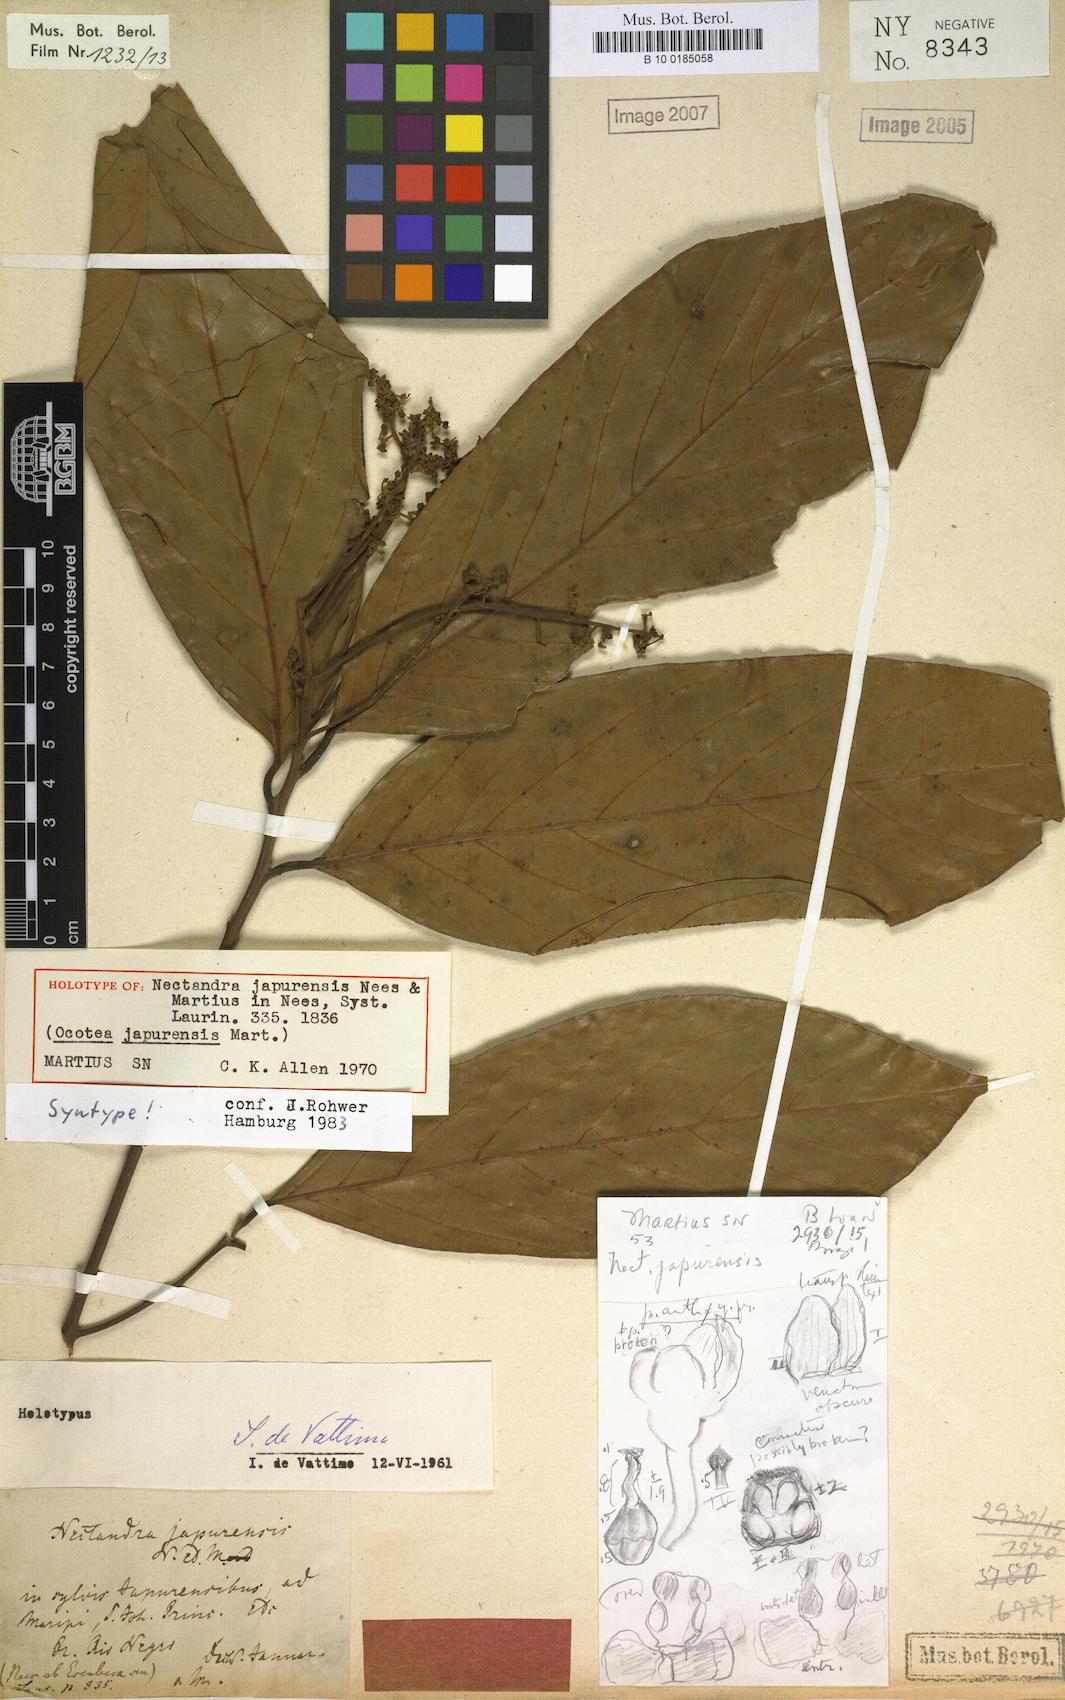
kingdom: Plantae
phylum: Tracheophyta
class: Magnoliopsida
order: Laurales
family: Lauraceae
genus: Nectandra
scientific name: Nectandra japurensis
